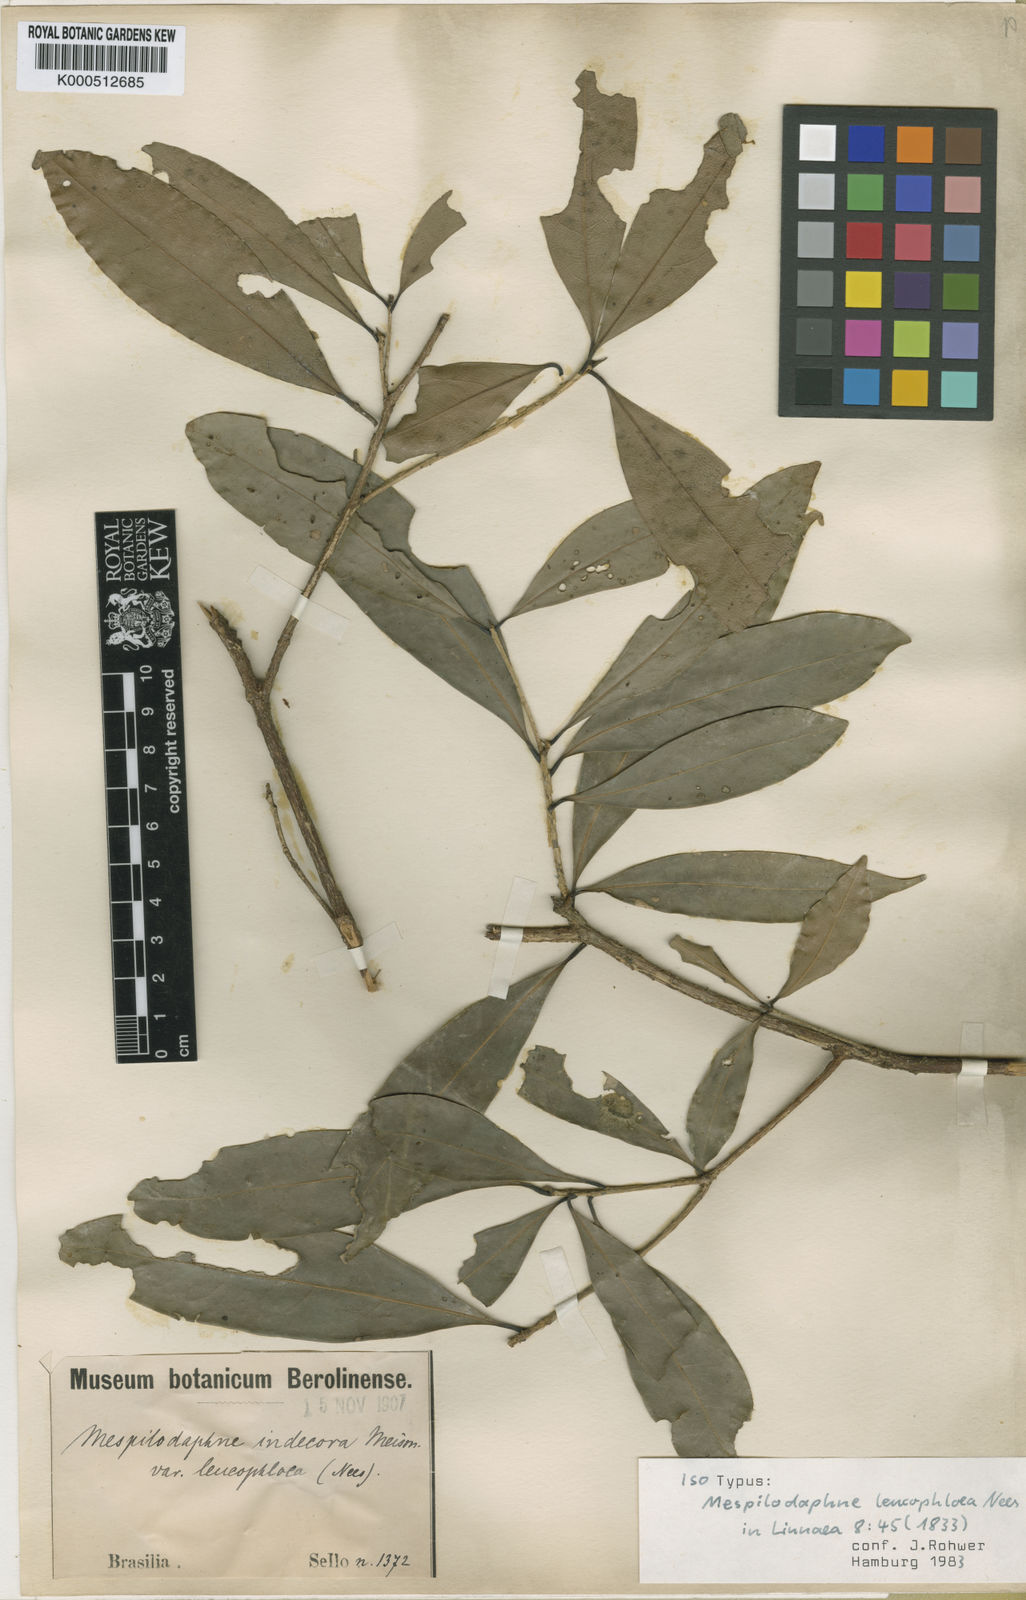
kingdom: Plantae
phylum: Tracheophyta
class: Magnoliopsida
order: Laurales
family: Lauraceae
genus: Mespilodaphne
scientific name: Mespilodaphne leucophloea
